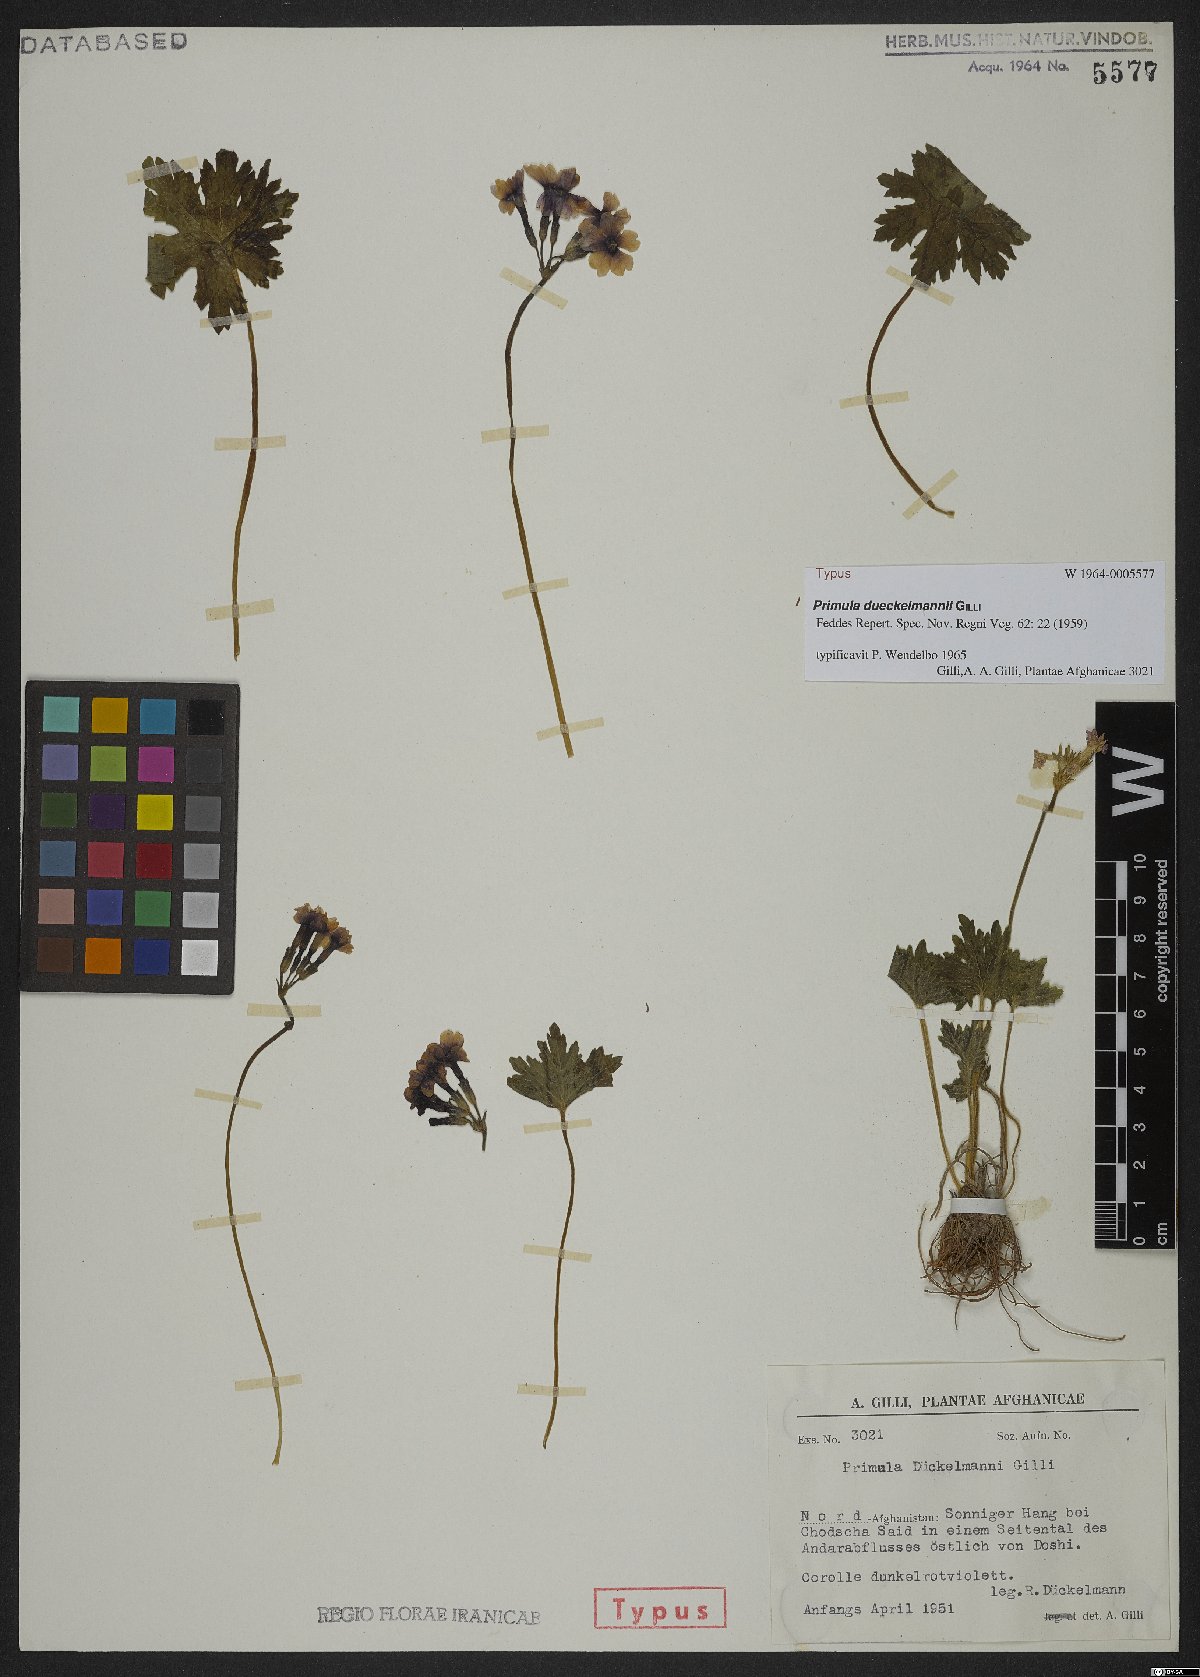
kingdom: Plantae
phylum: Tracheophyta
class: Magnoliopsida
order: Ericales
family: Primulaceae
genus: Primula
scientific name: Primula dueckelmannii
